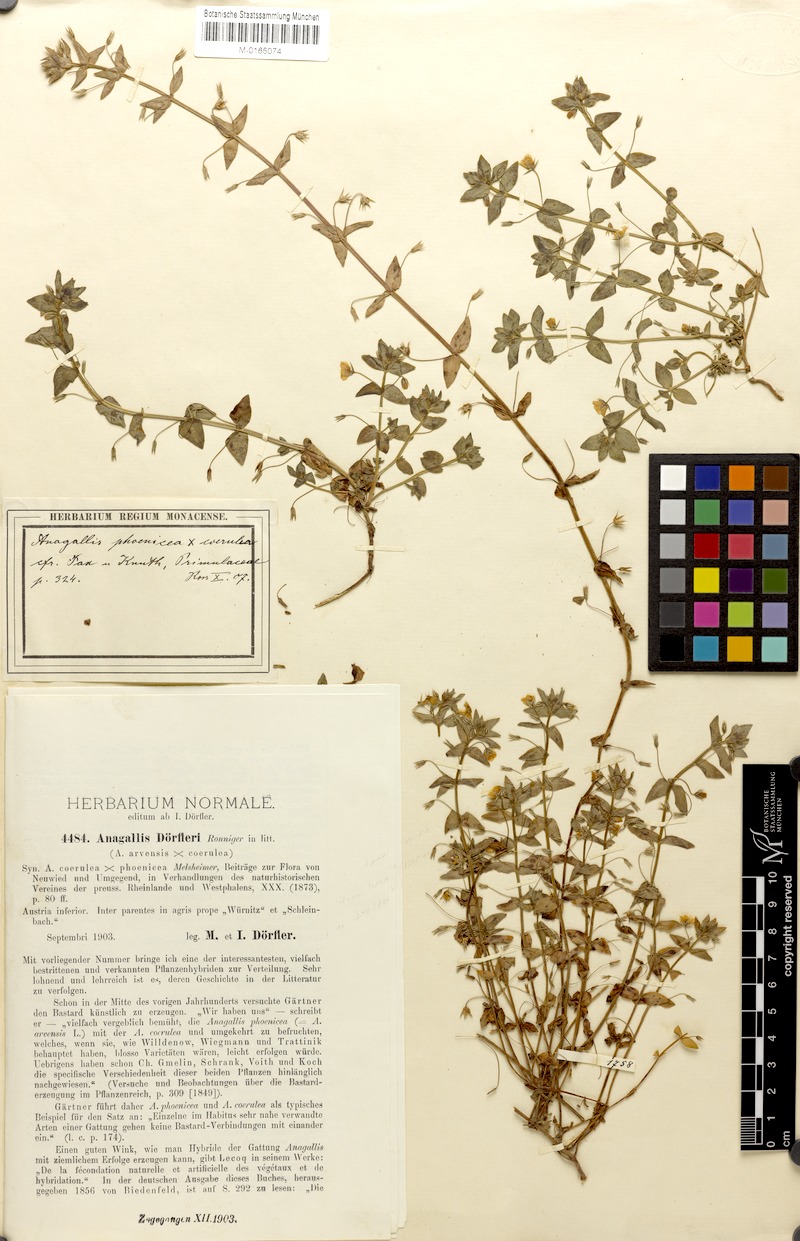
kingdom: Plantae
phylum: Tracheophyta
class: Magnoliopsida
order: Ericales
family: Primulaceae
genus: Lysimachia
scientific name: Lysimachia foemina
